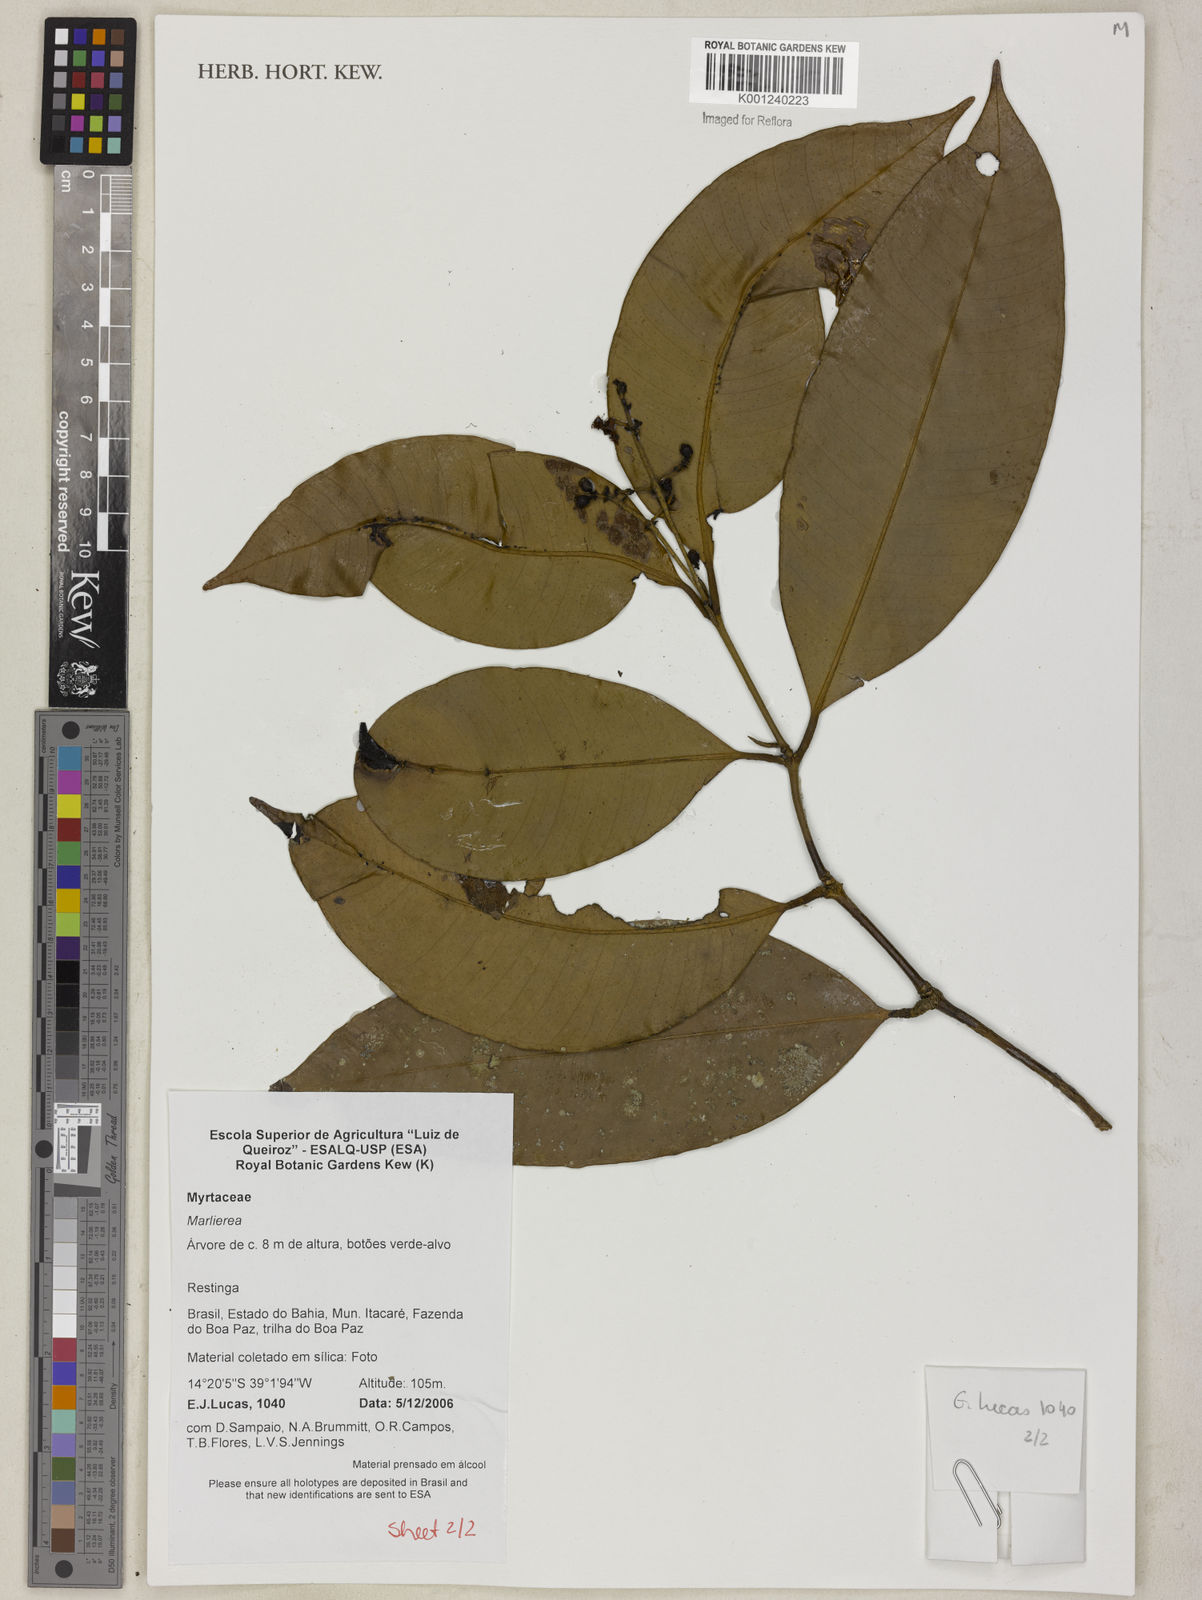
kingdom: Plantae
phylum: Tracheophyta
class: Magnoliopsida
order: Myrtales
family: Myrtaceae
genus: Myrcia
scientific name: Myrcia trimera
